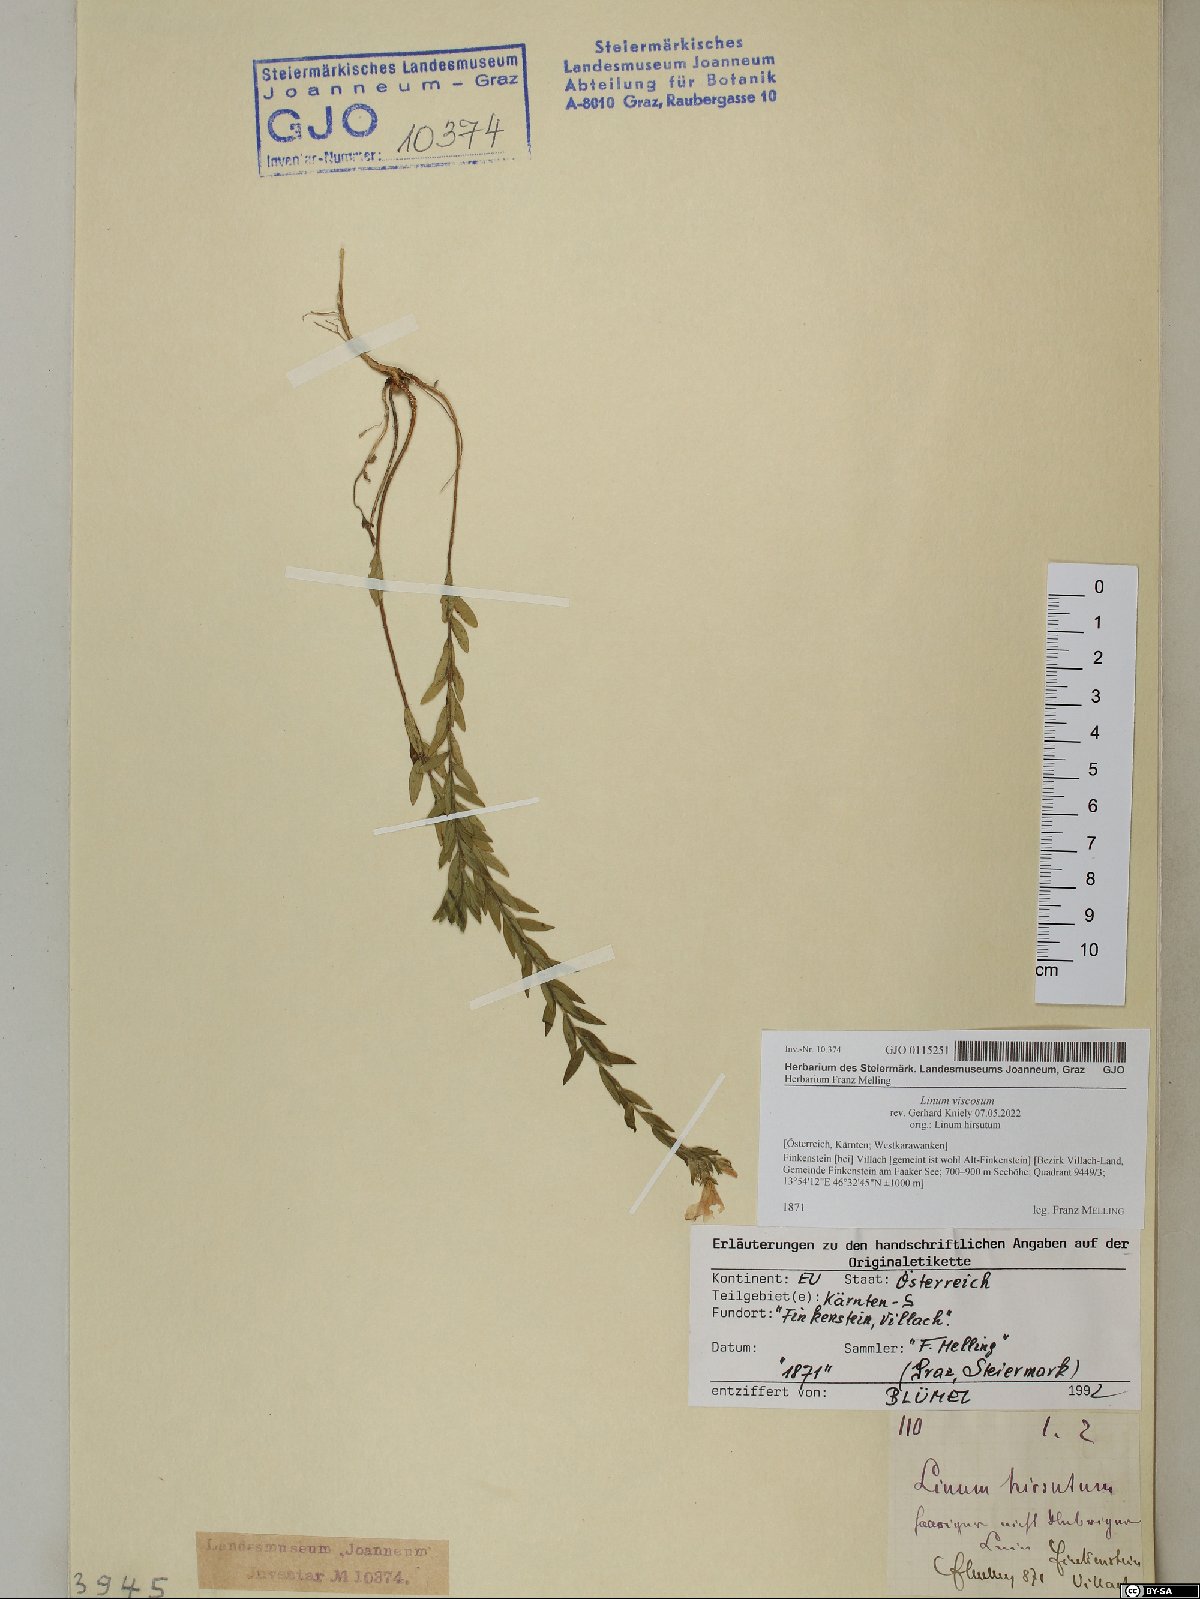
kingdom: Plantae
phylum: Tracheophyta
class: Magnoliopsida
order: Malpighiales
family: Linaceae
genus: Linum
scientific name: Linum viscosum
